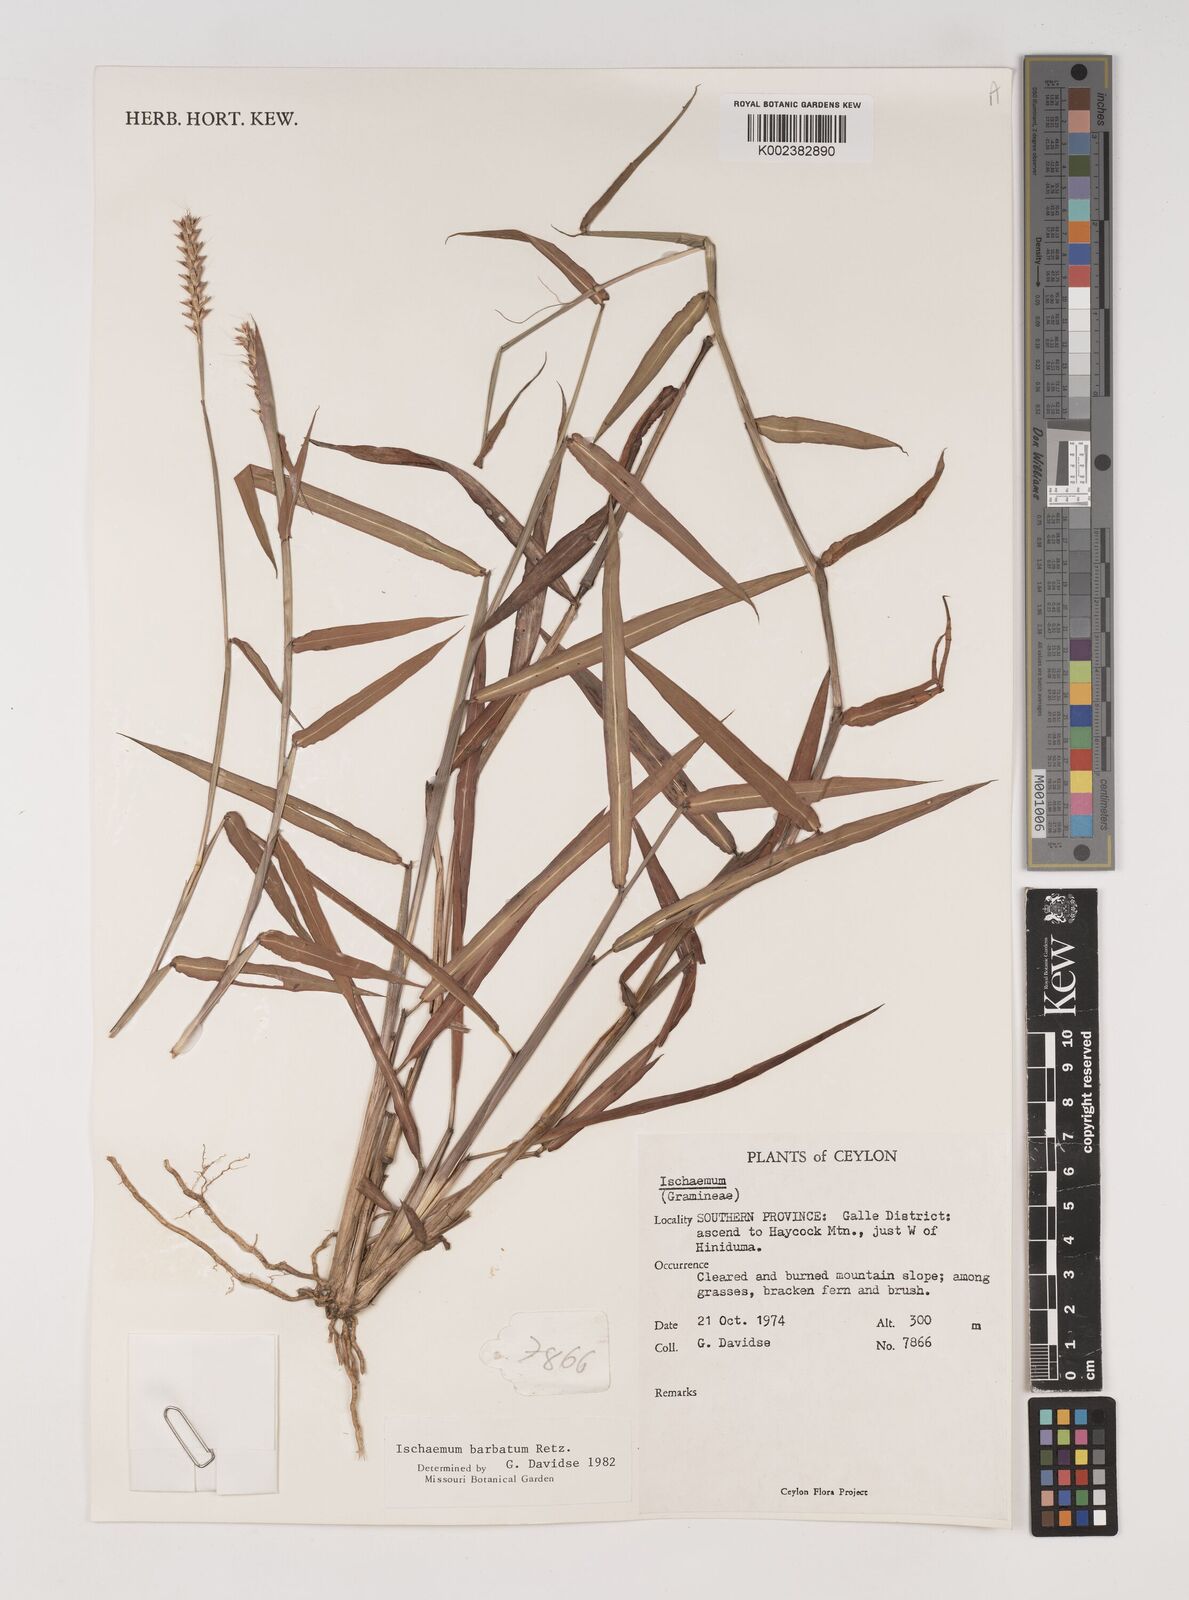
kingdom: Plantae
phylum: Tracheophyta
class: Liliopsida
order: Poales
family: Poaceae
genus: Ischaemum
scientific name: Ischaemum
